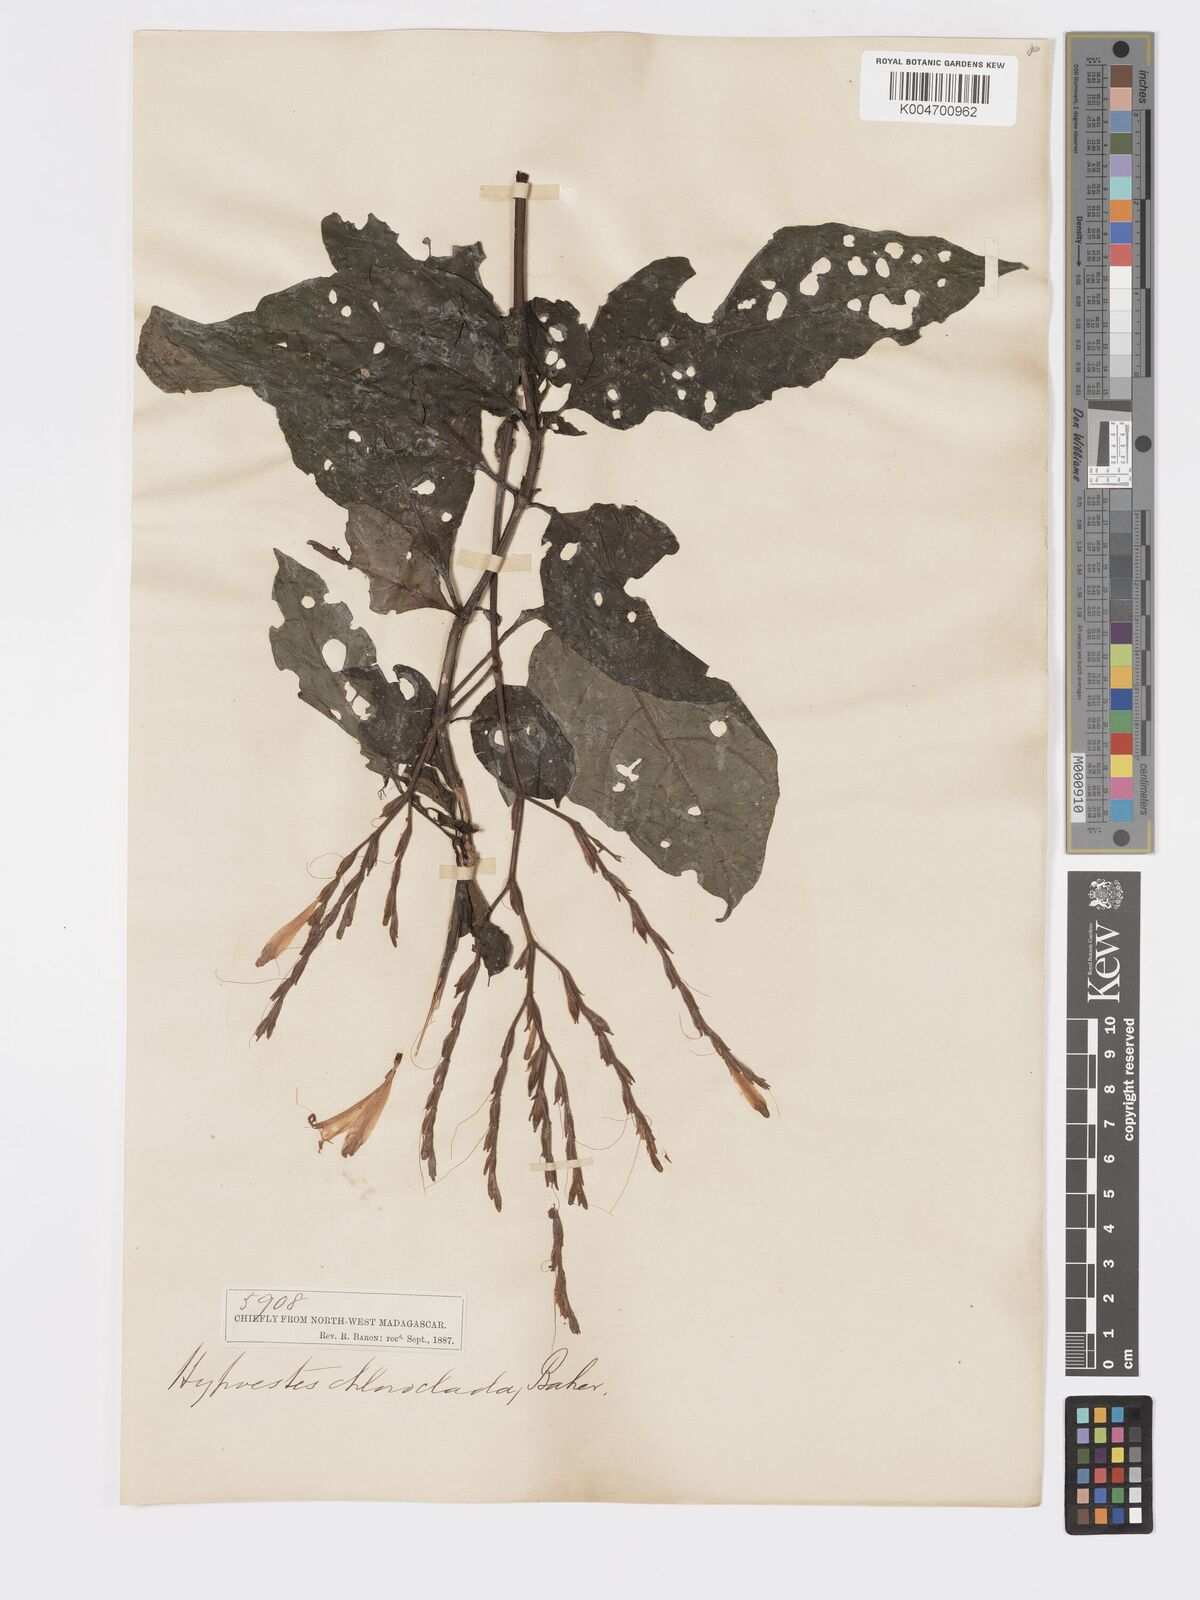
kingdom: Plantae
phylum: Tracheophyta
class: Magnoliopsida
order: Lamiales
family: Acanthaceae
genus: Hypoestes
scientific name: Hypoestes
